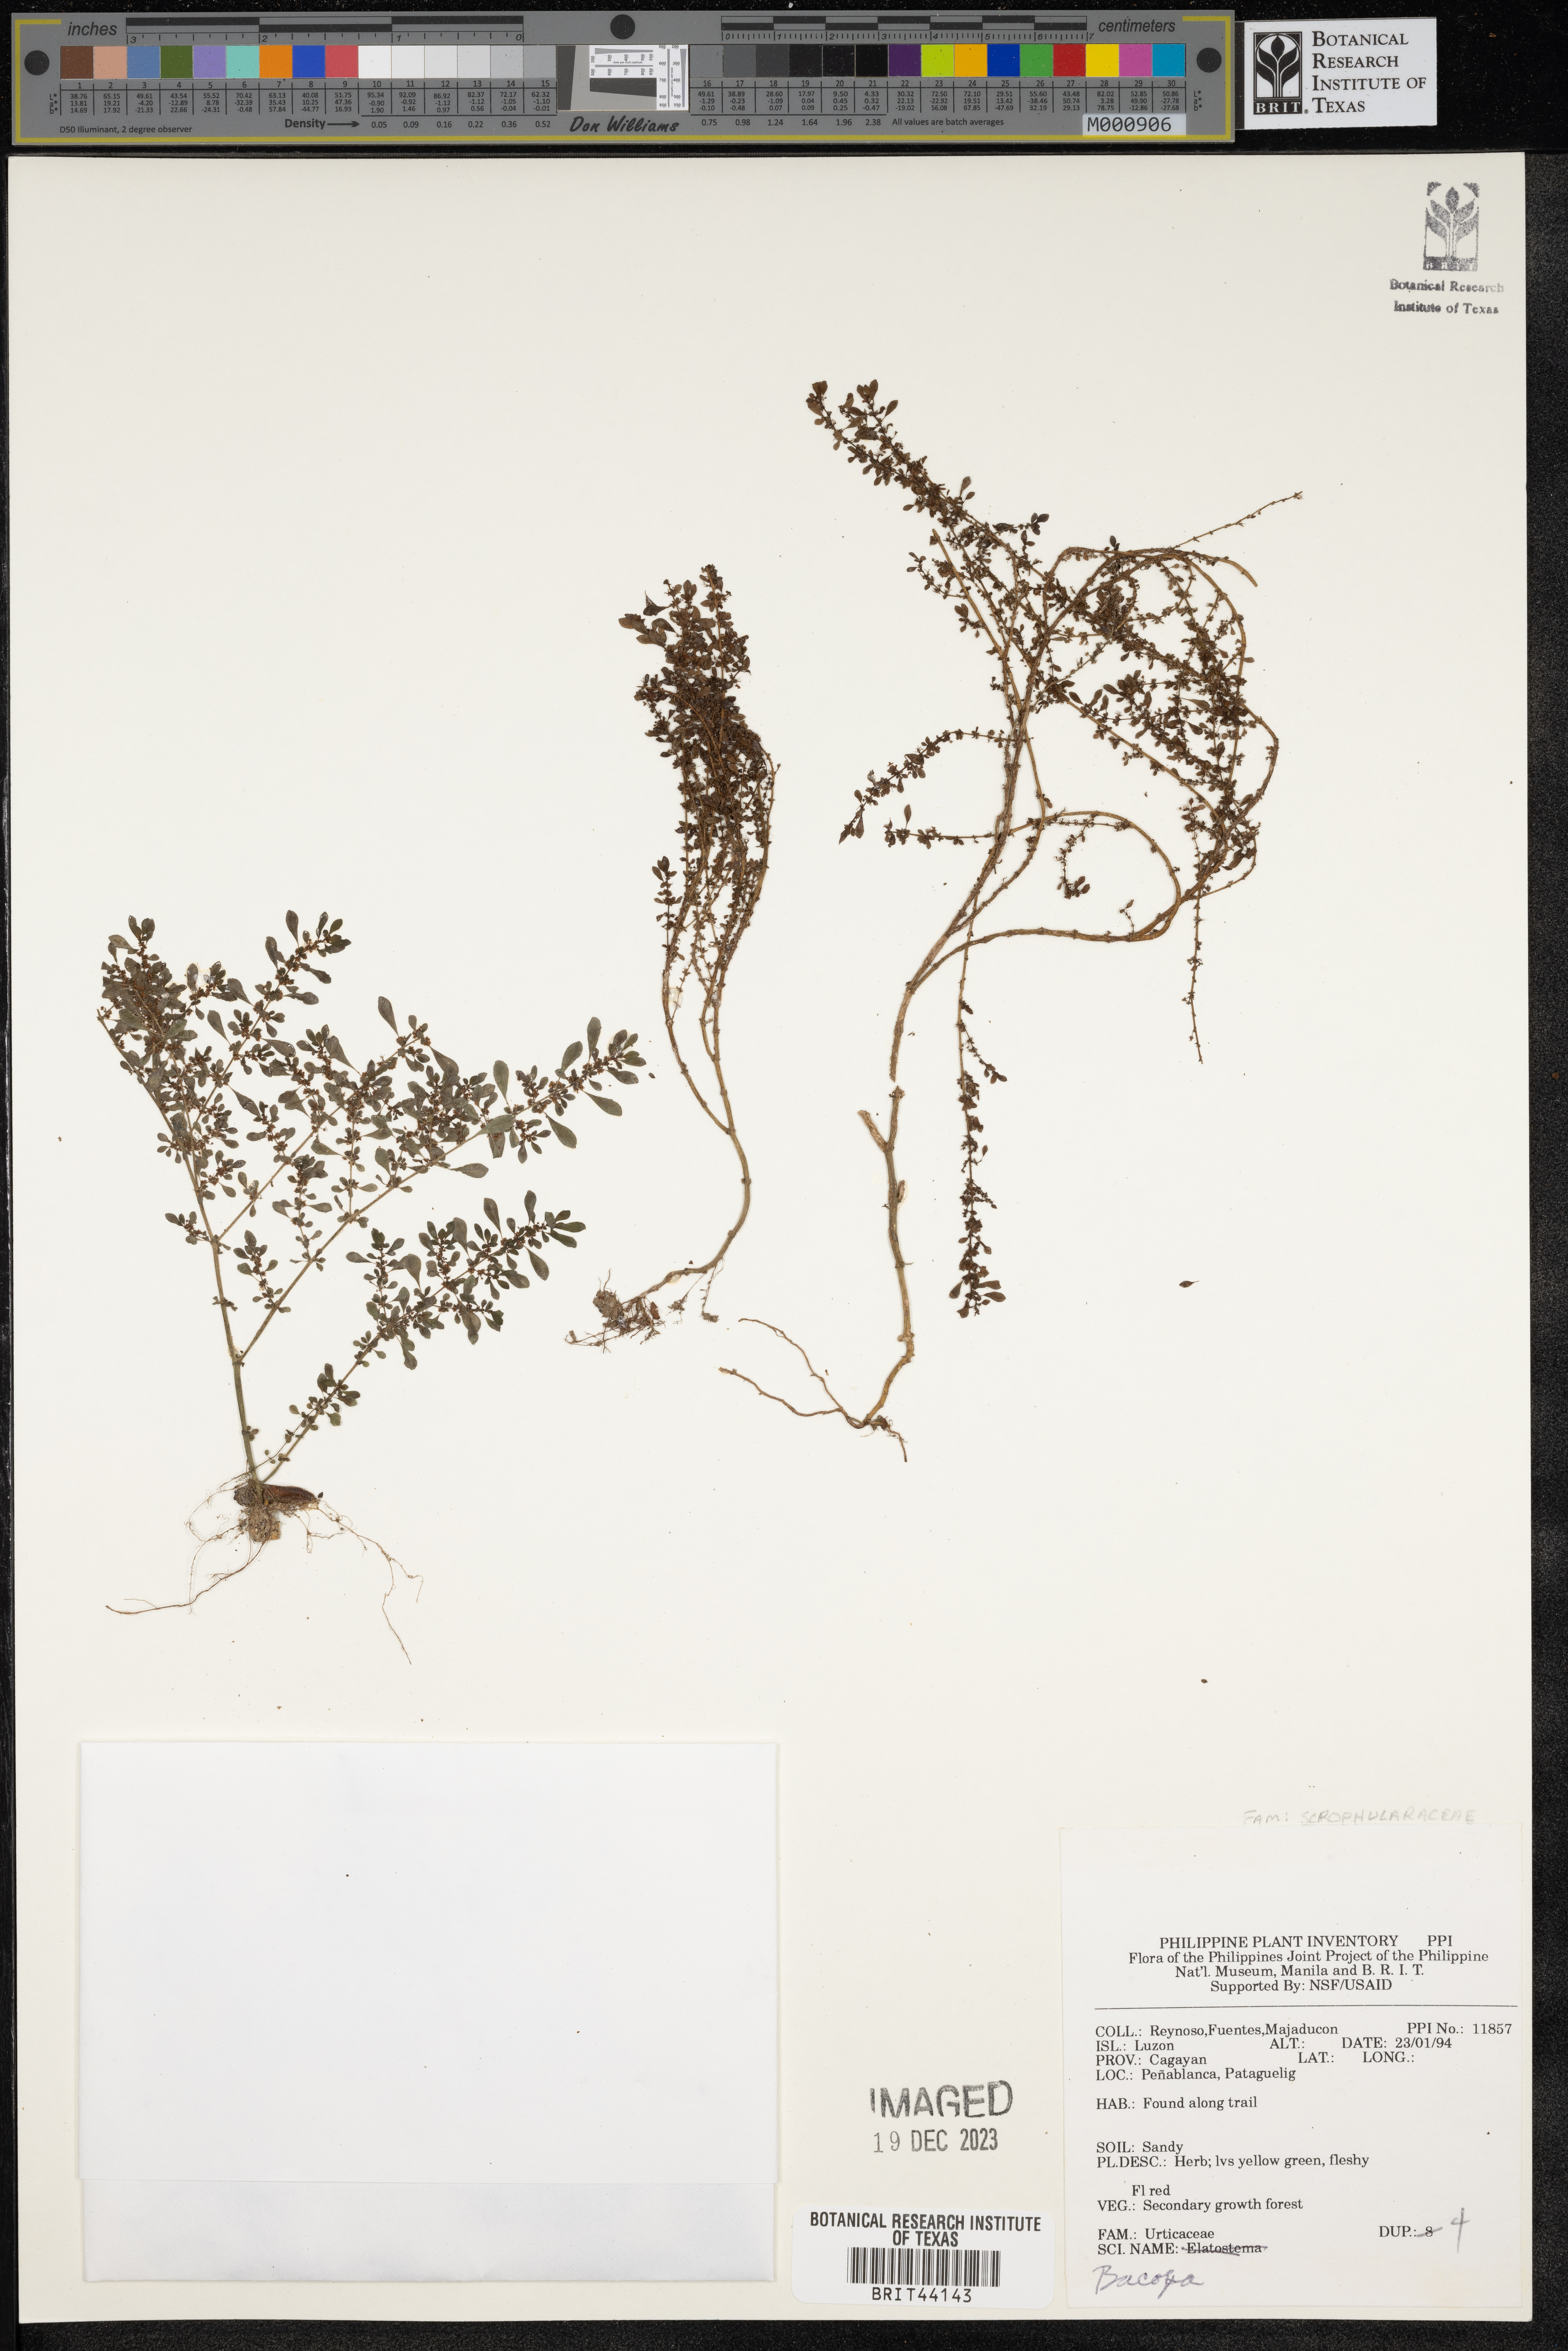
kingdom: Plantae
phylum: Tracheophyta
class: Magnoliopsida
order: Lamiales
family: Plantaginaceae
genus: Bacopa
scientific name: Bacopa
